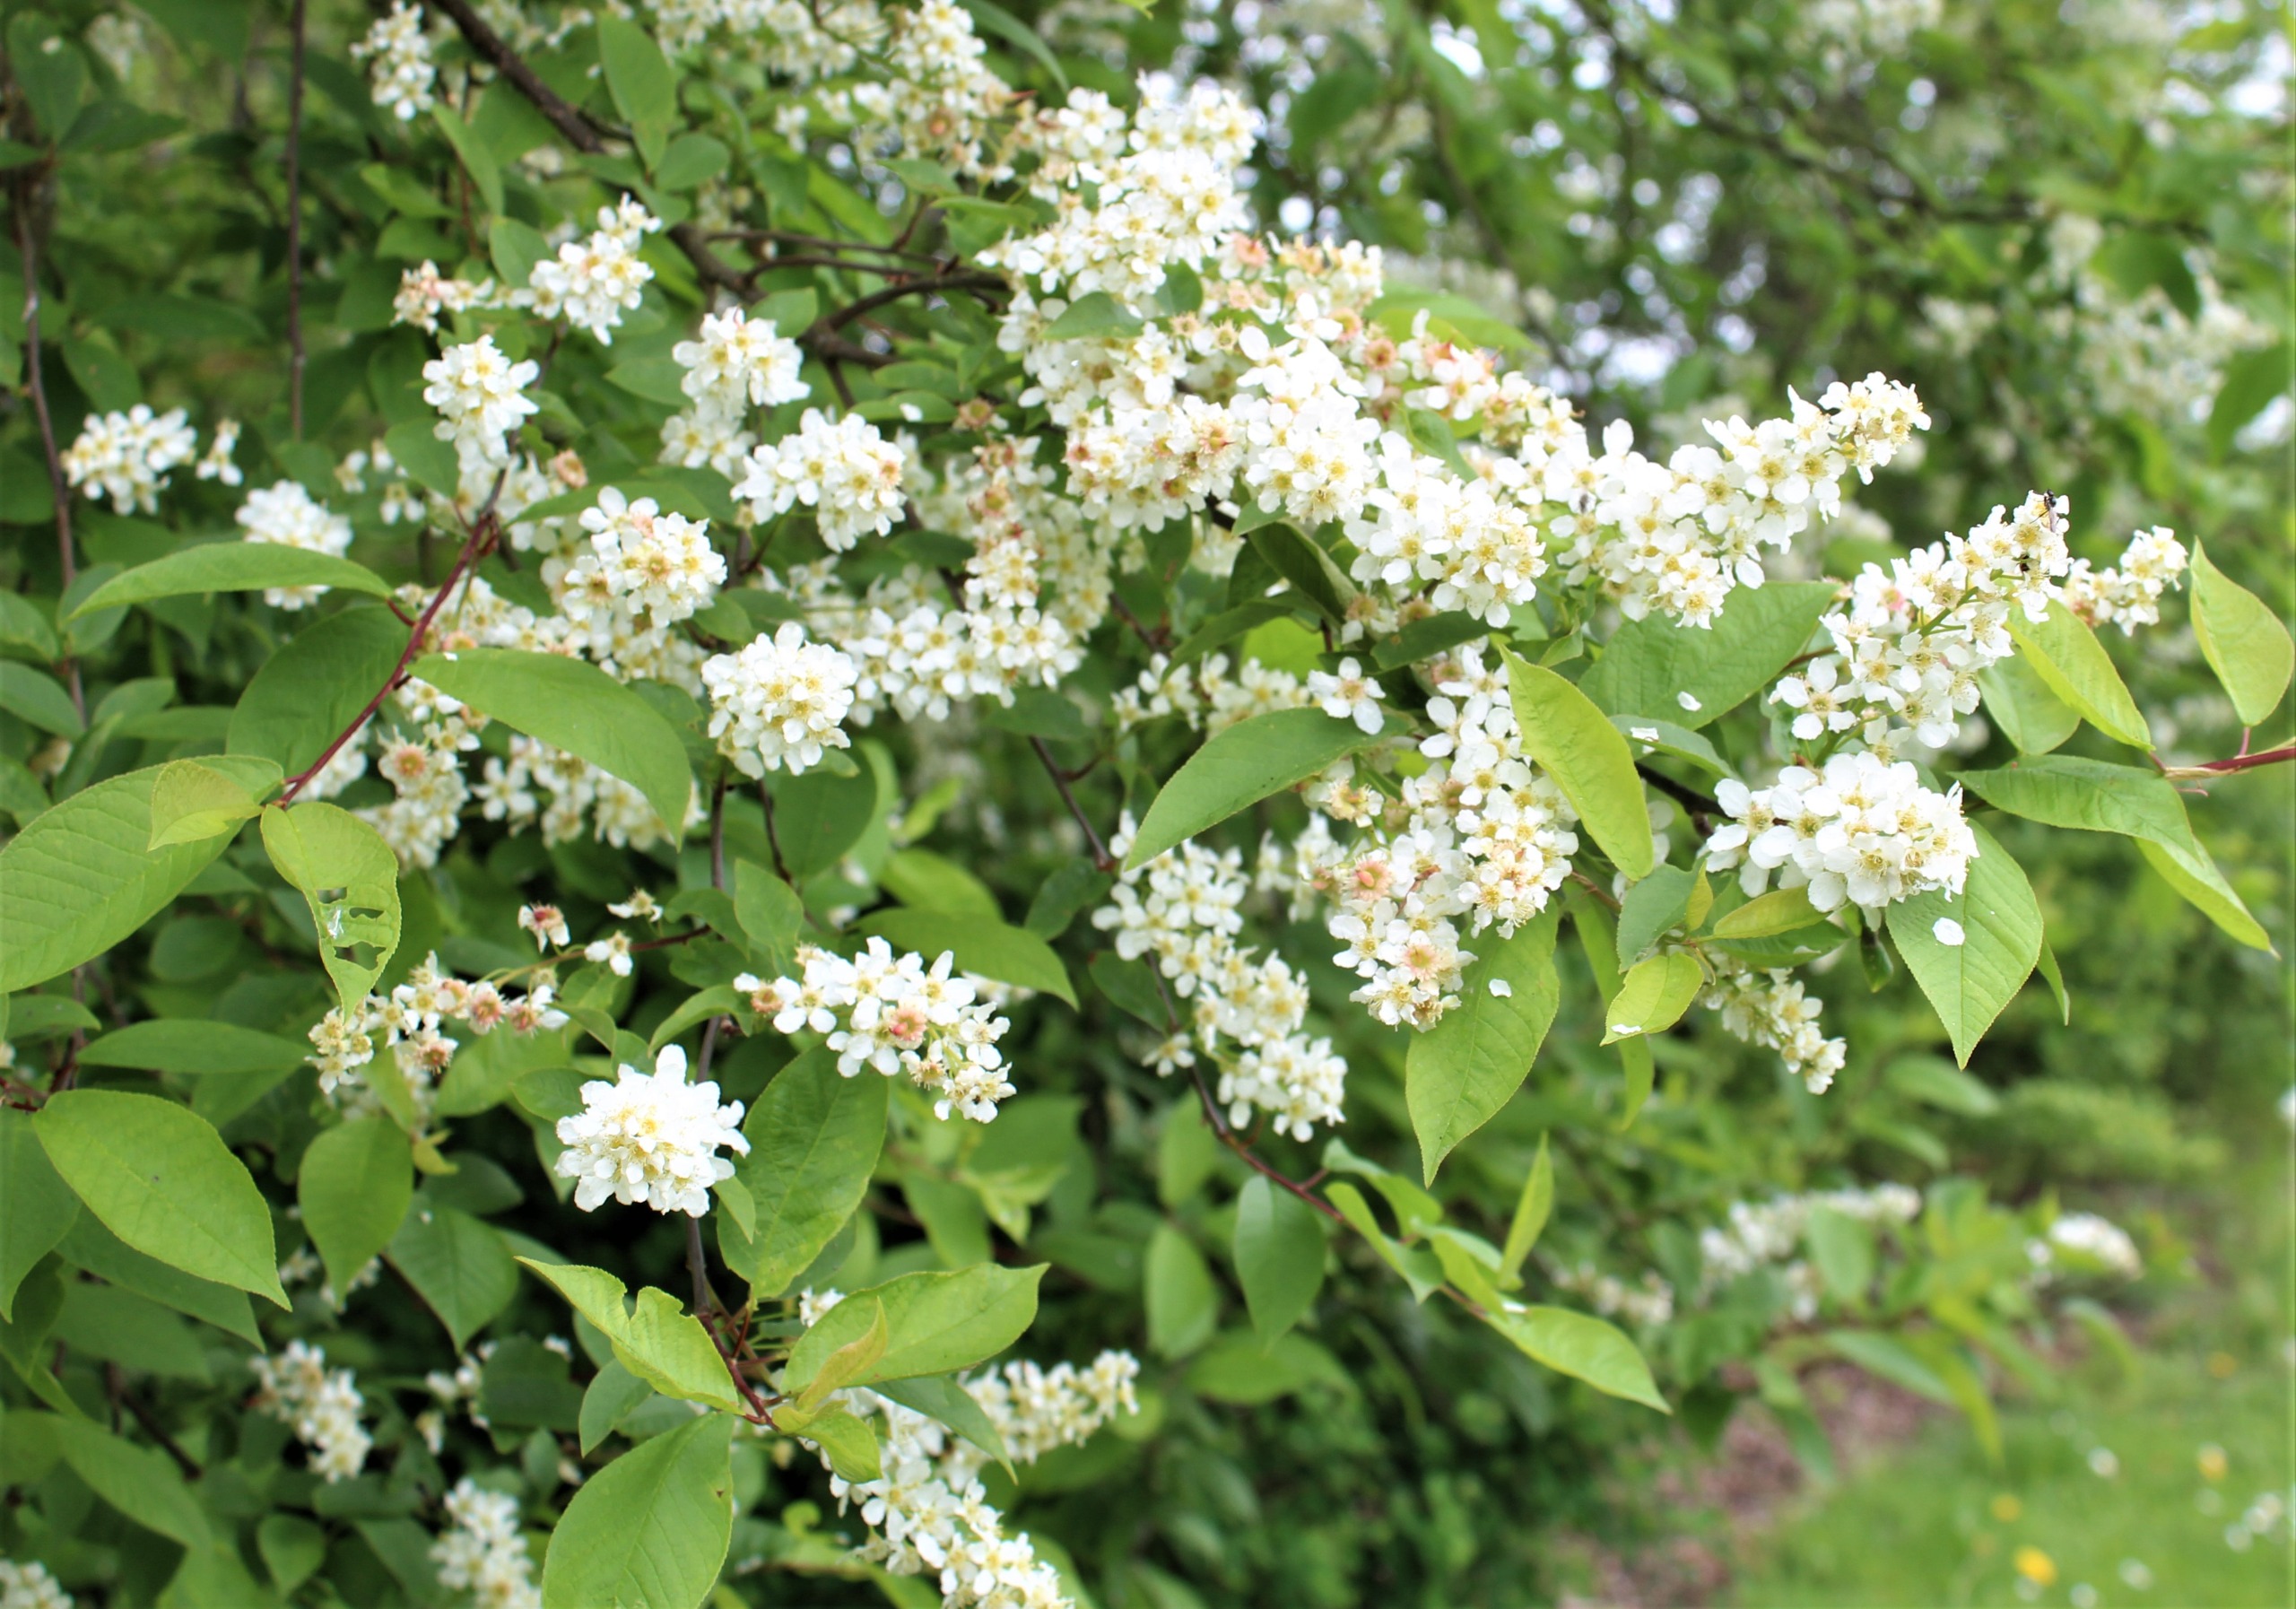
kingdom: Plantae
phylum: Tracheophyta
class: Magnoliopsida
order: Rosales
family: Rosaceae
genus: Prunus
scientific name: Prunus padus
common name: Almindelig hæg
